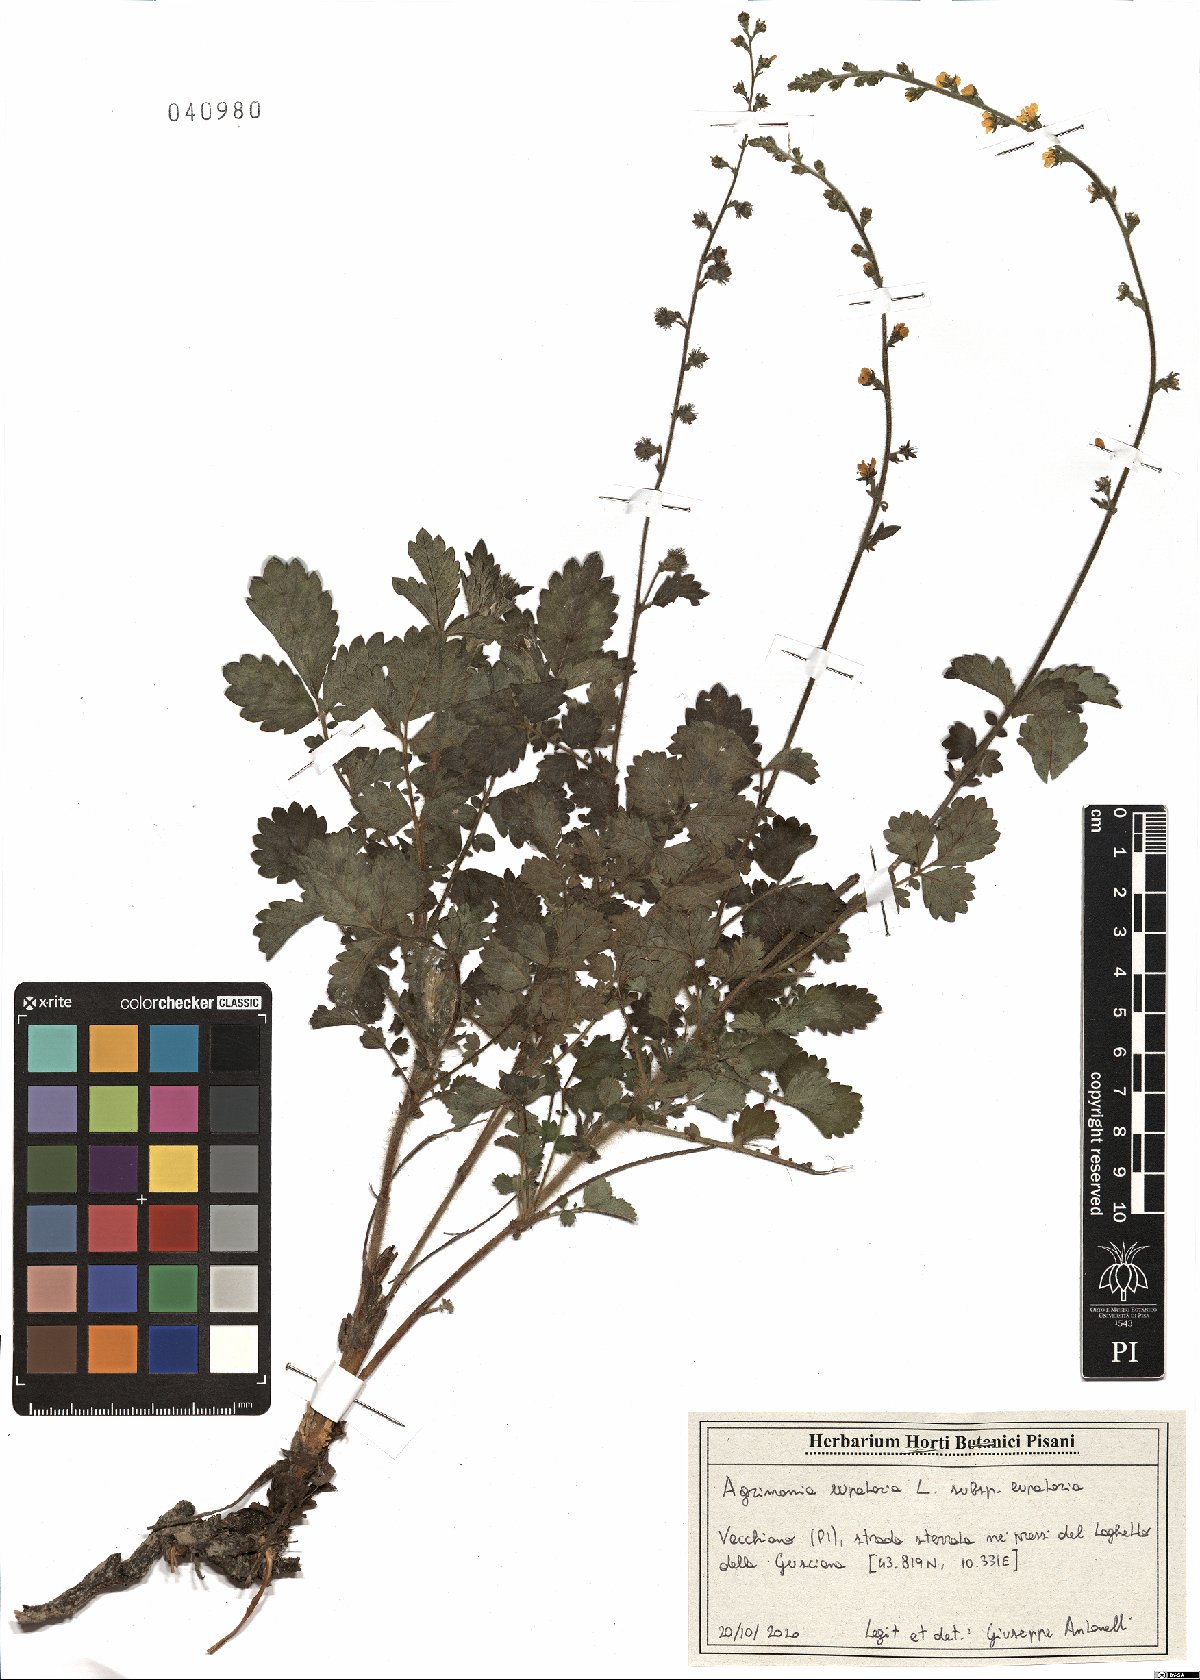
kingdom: Plantae
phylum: Tracheophyta
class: Magnoliopsida
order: Rosales
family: Rosaceae
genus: Agrimonia
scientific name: Agrimonia eupatoria
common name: Agrimony
